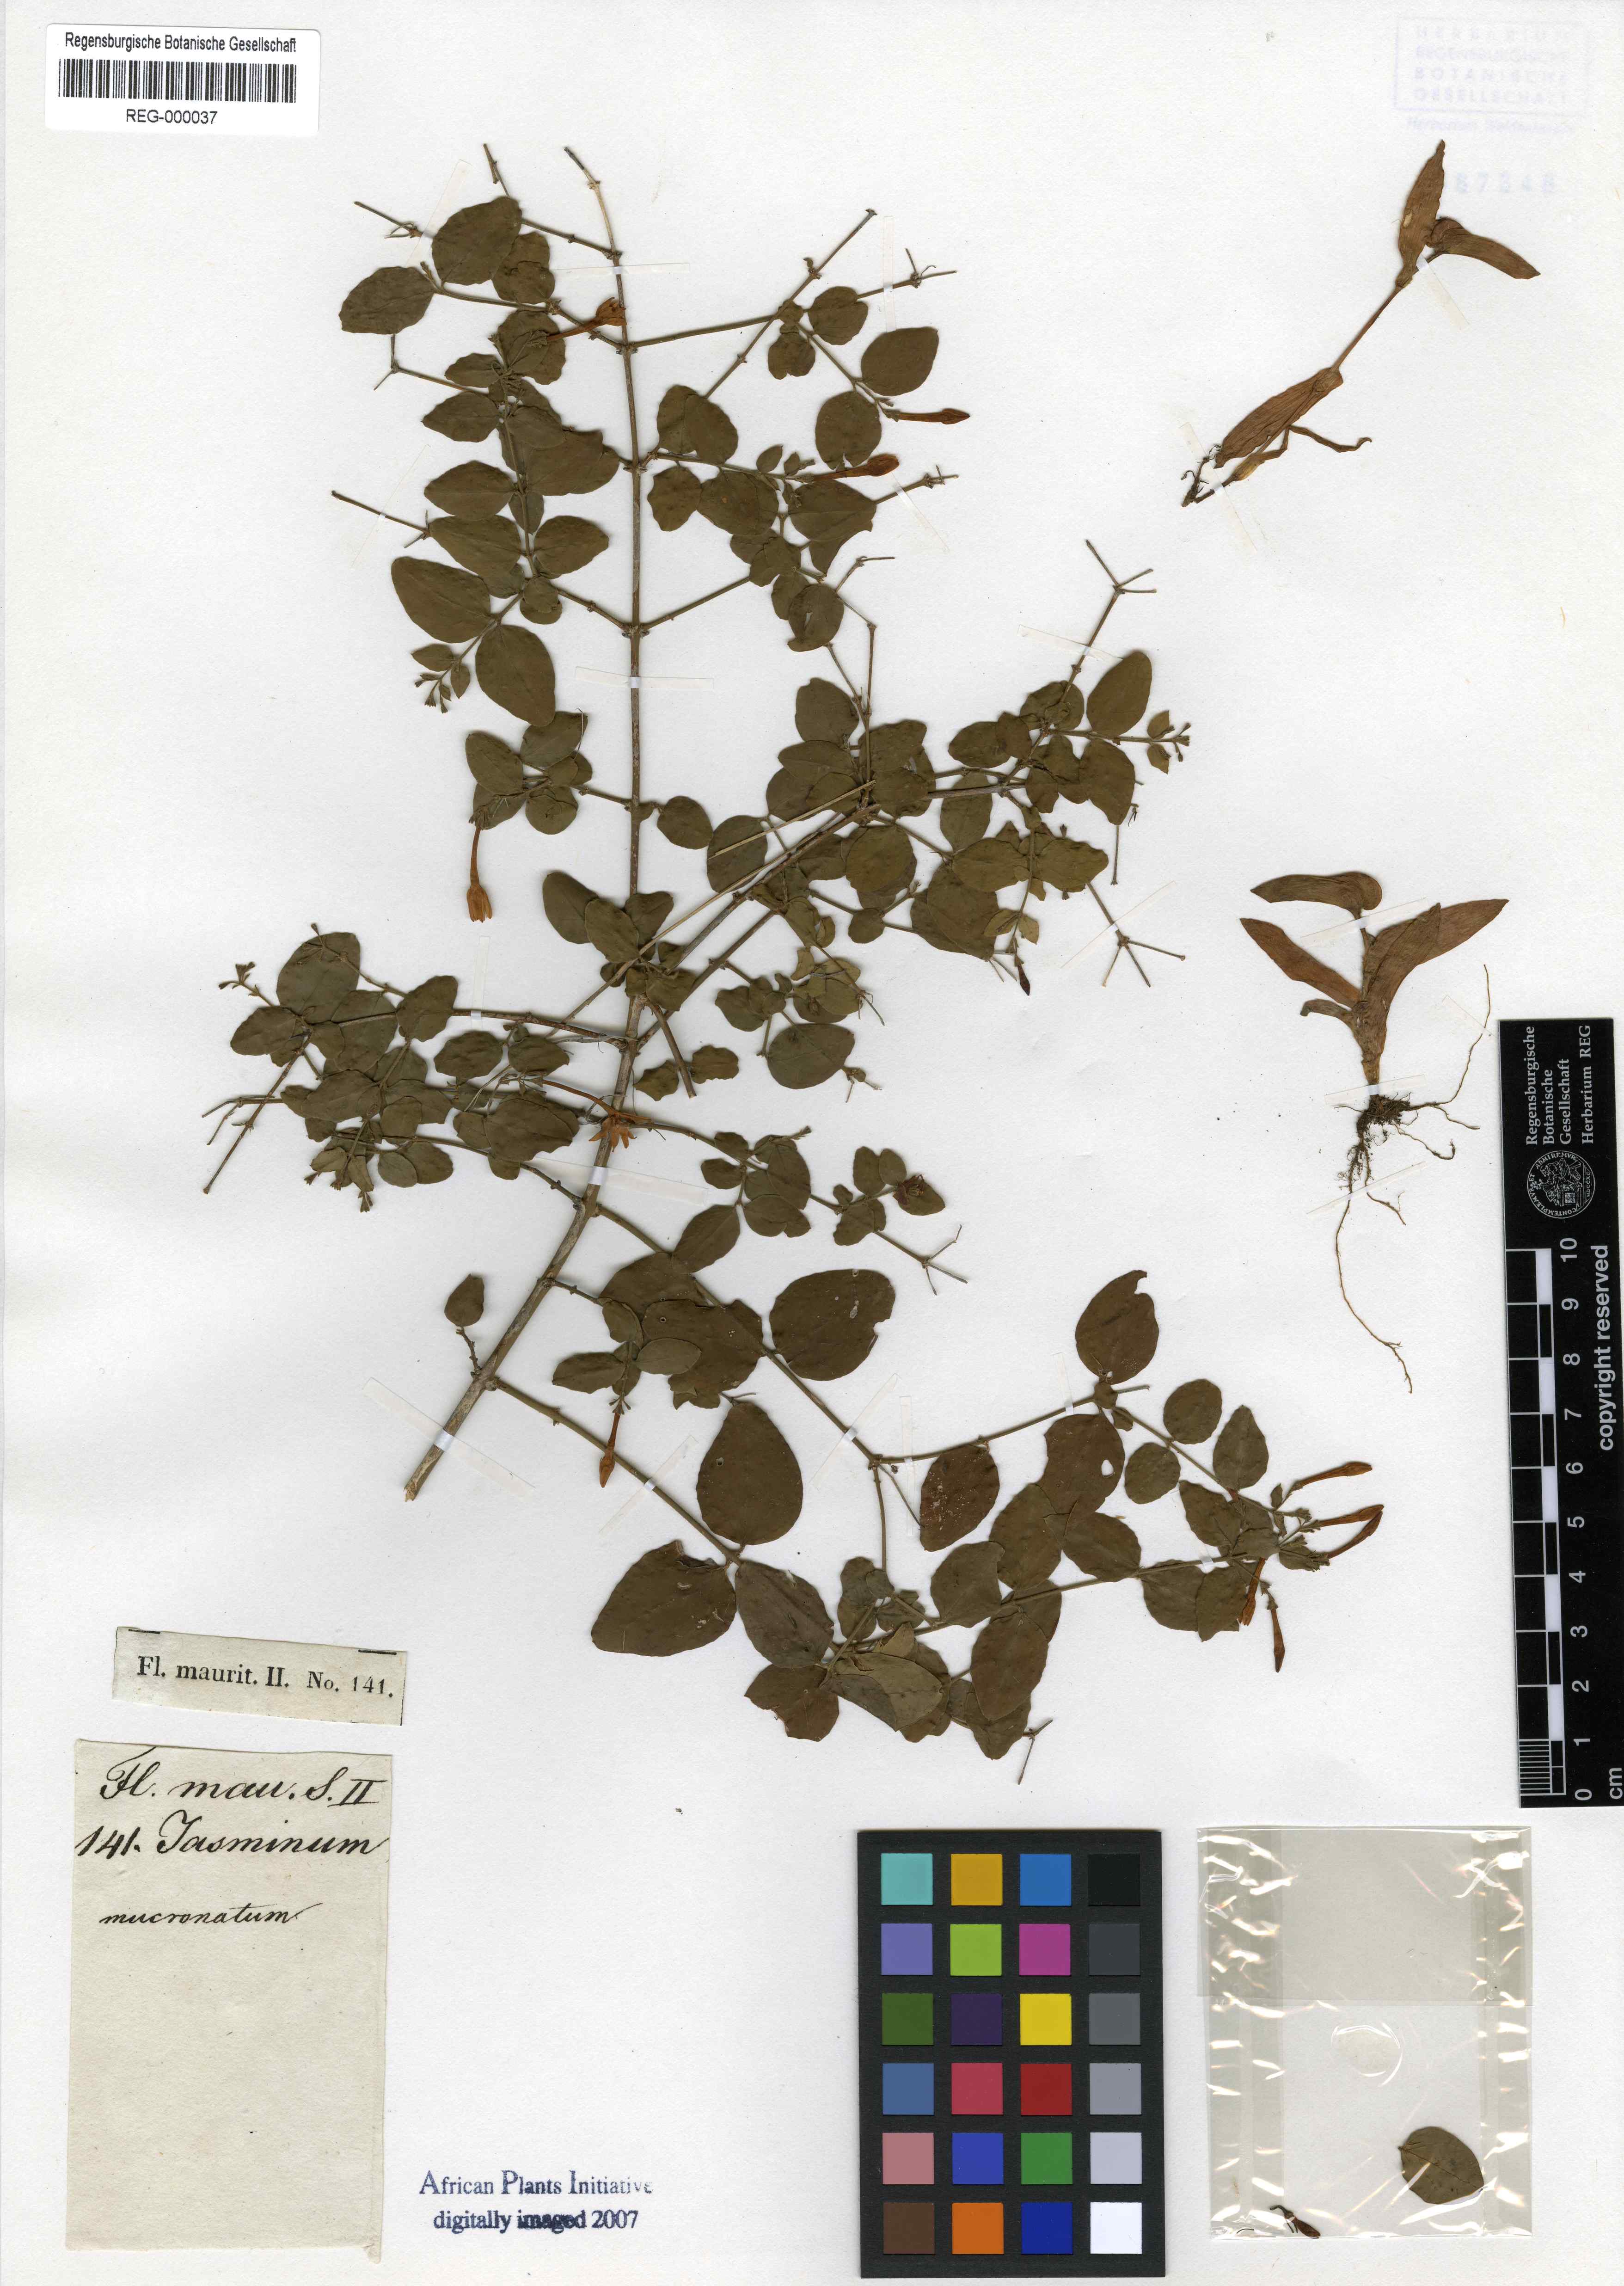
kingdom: Plantae
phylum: Tracheophyta
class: Magnoliopsida
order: Lamiales
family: Oleaceae
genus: Jasminum
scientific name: Jasminum
